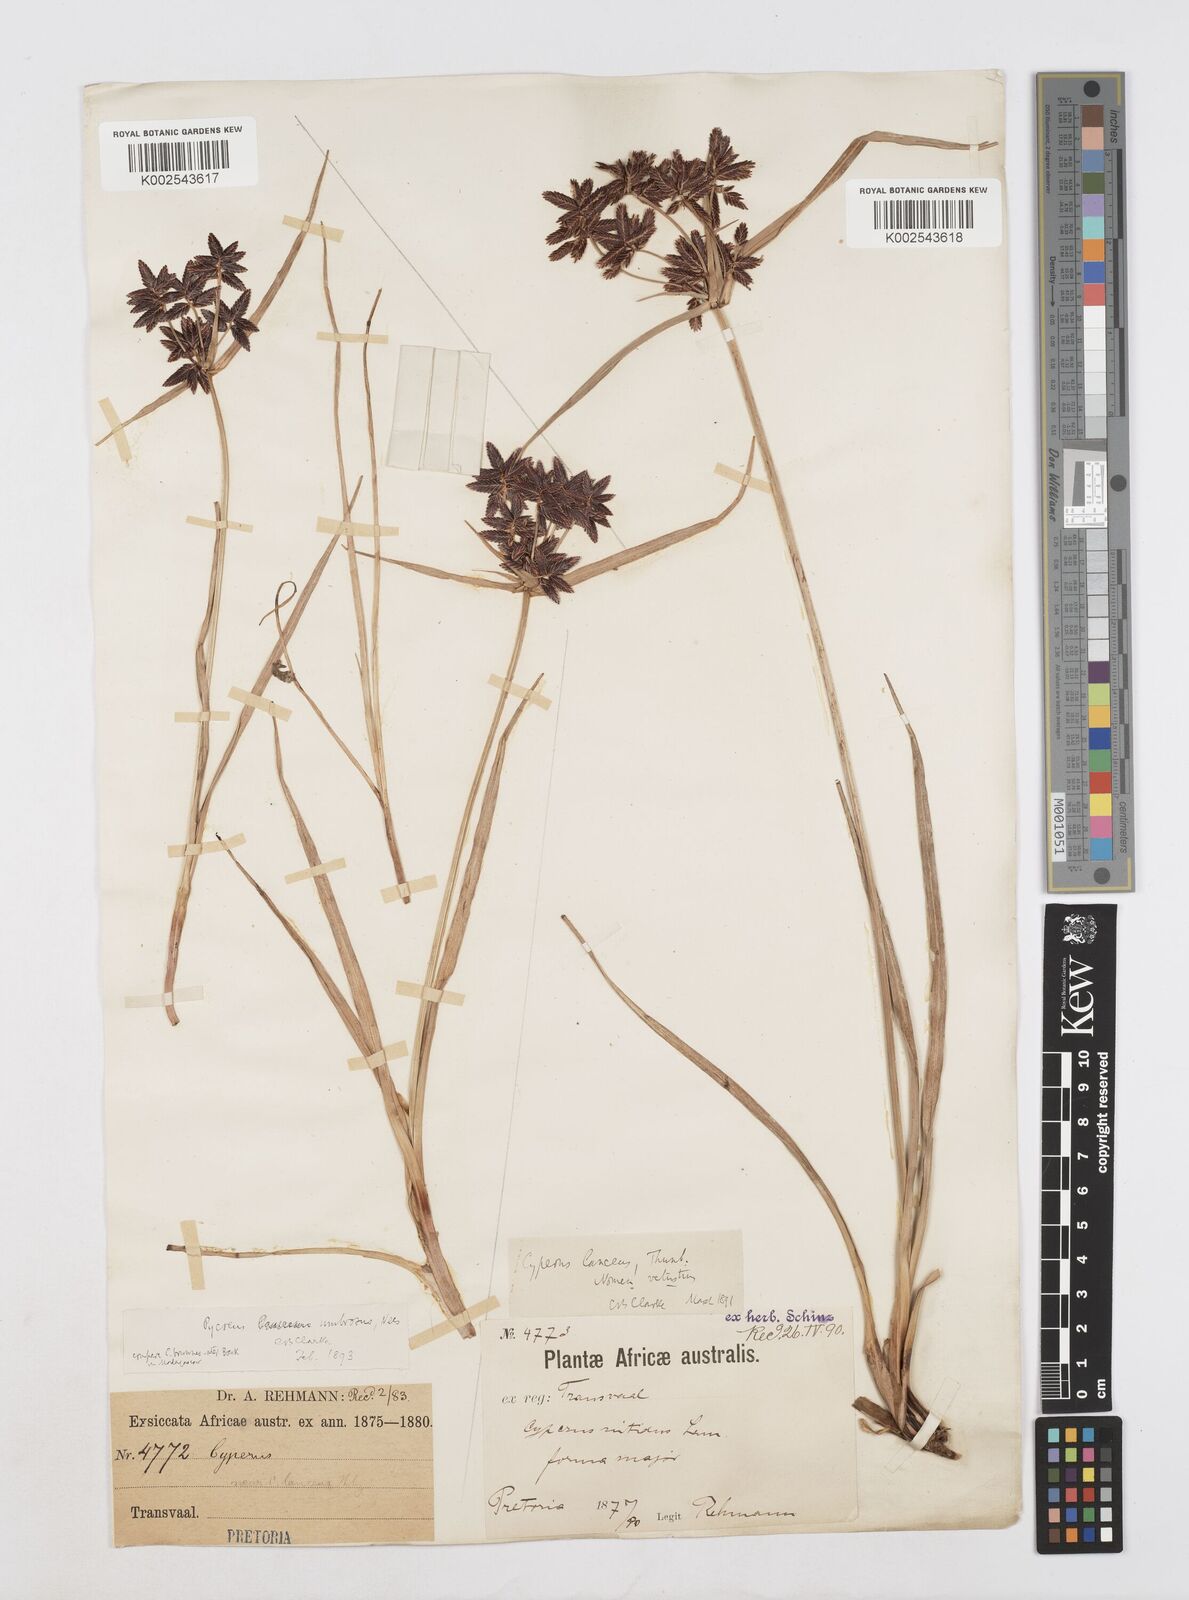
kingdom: Plantae
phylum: Tracheophyta
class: Liliopsida
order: Poales
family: Cyperaceae
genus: Cyperus
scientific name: Cyperus nitidus
